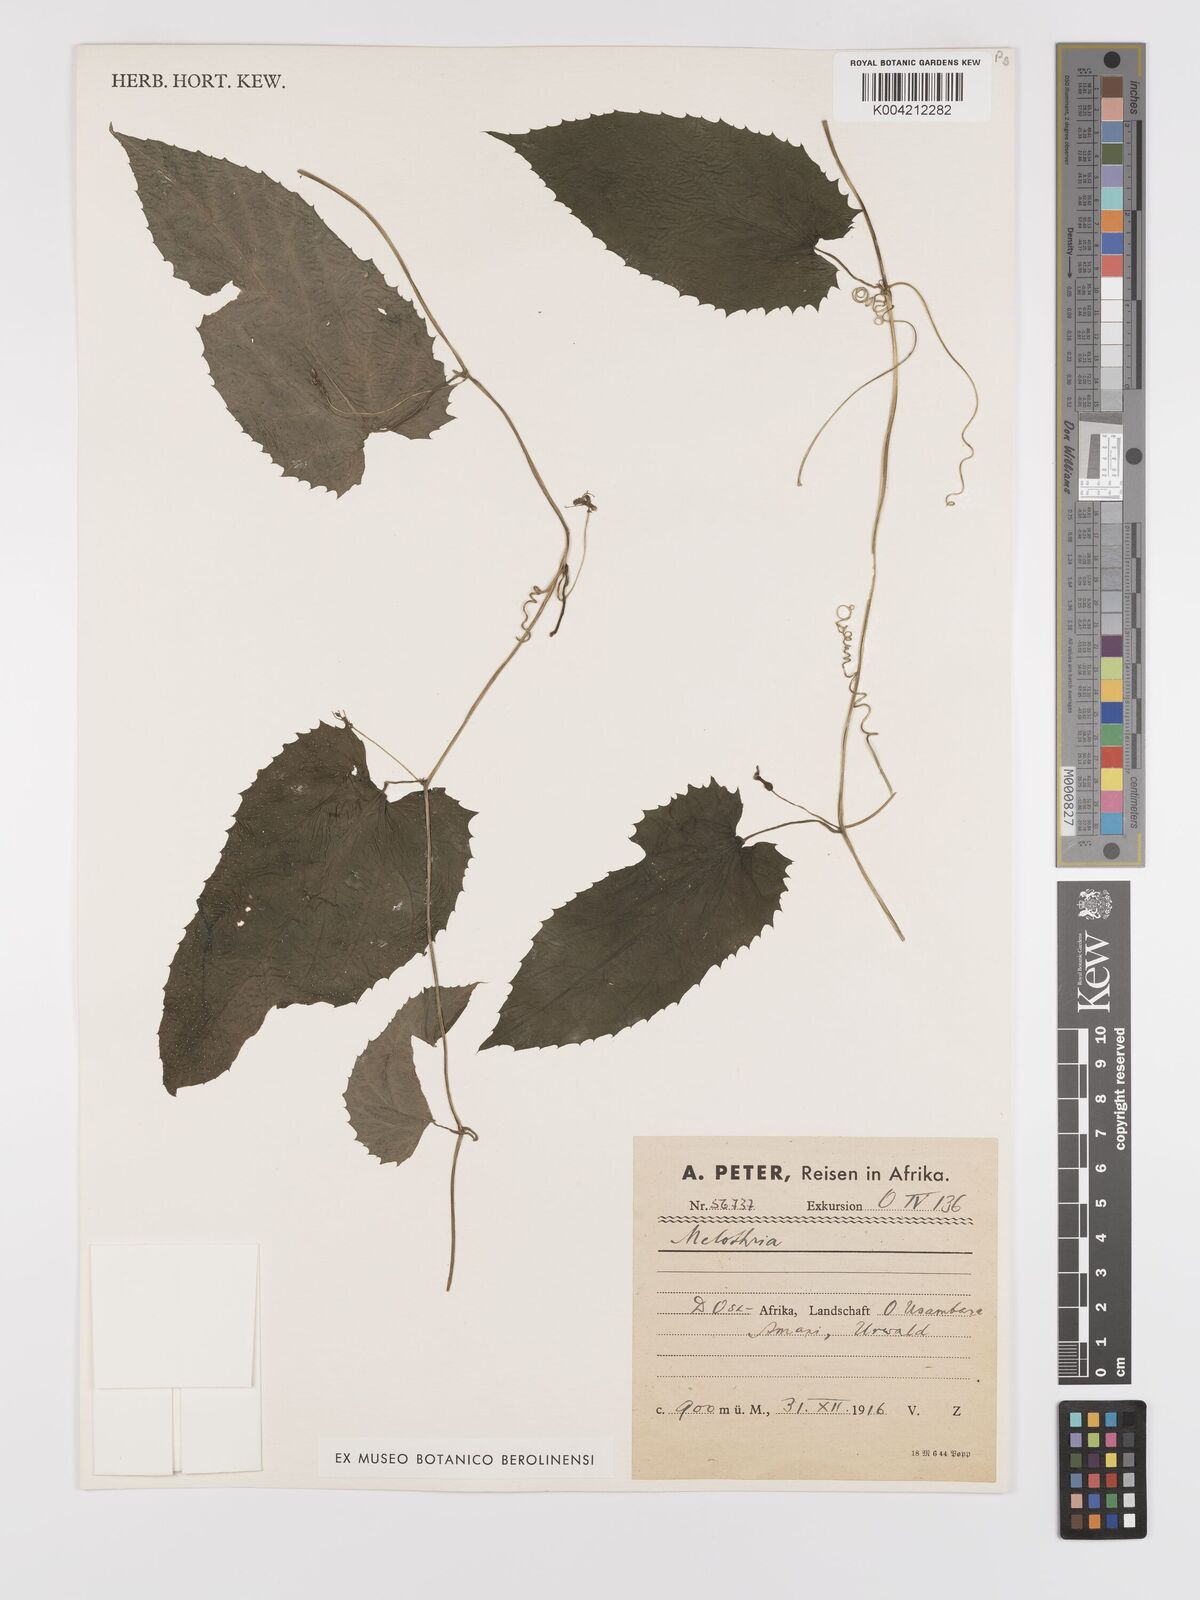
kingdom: Plantae
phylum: Tracheophyta
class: Magnoliopsida
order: Cucurbitales
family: Cucurbitaceae
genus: Kedrostis
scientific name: Kedrostis heterophylla
